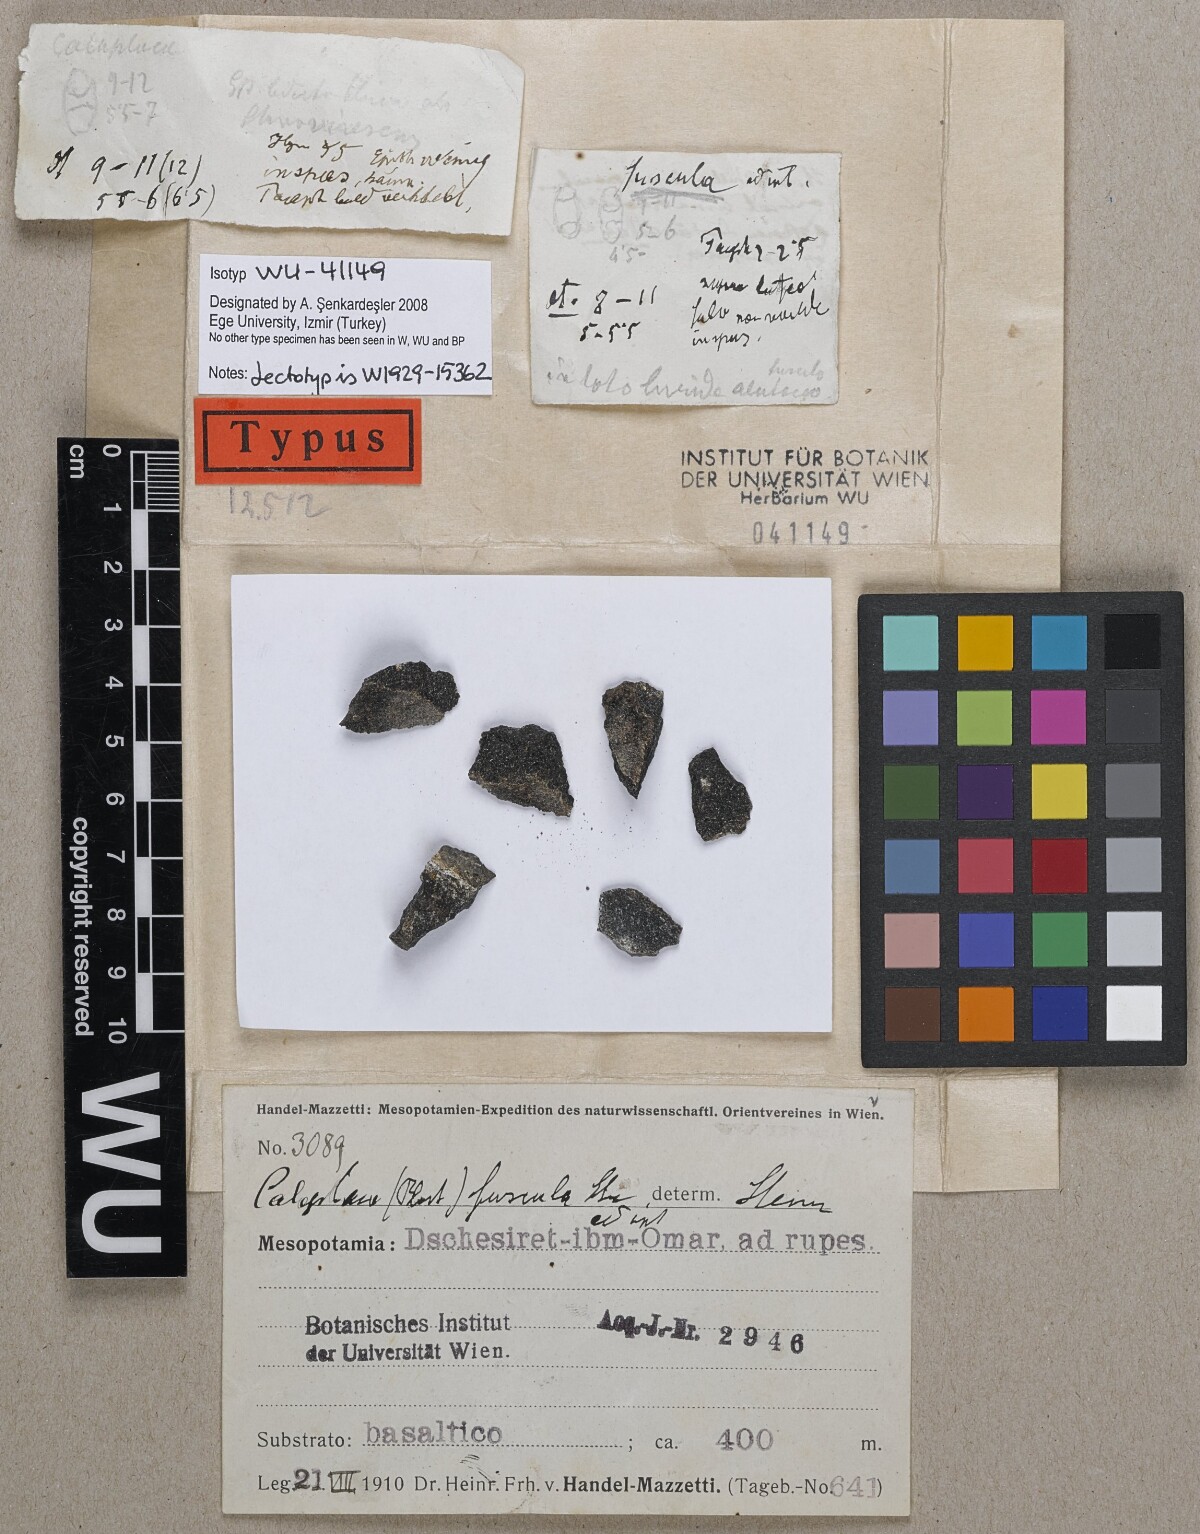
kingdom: Fungi
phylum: Ascomycota
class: Lecanoromycetes
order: Teloschistales
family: Teloschistaceae
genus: Caloplaca
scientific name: Caloplaca
